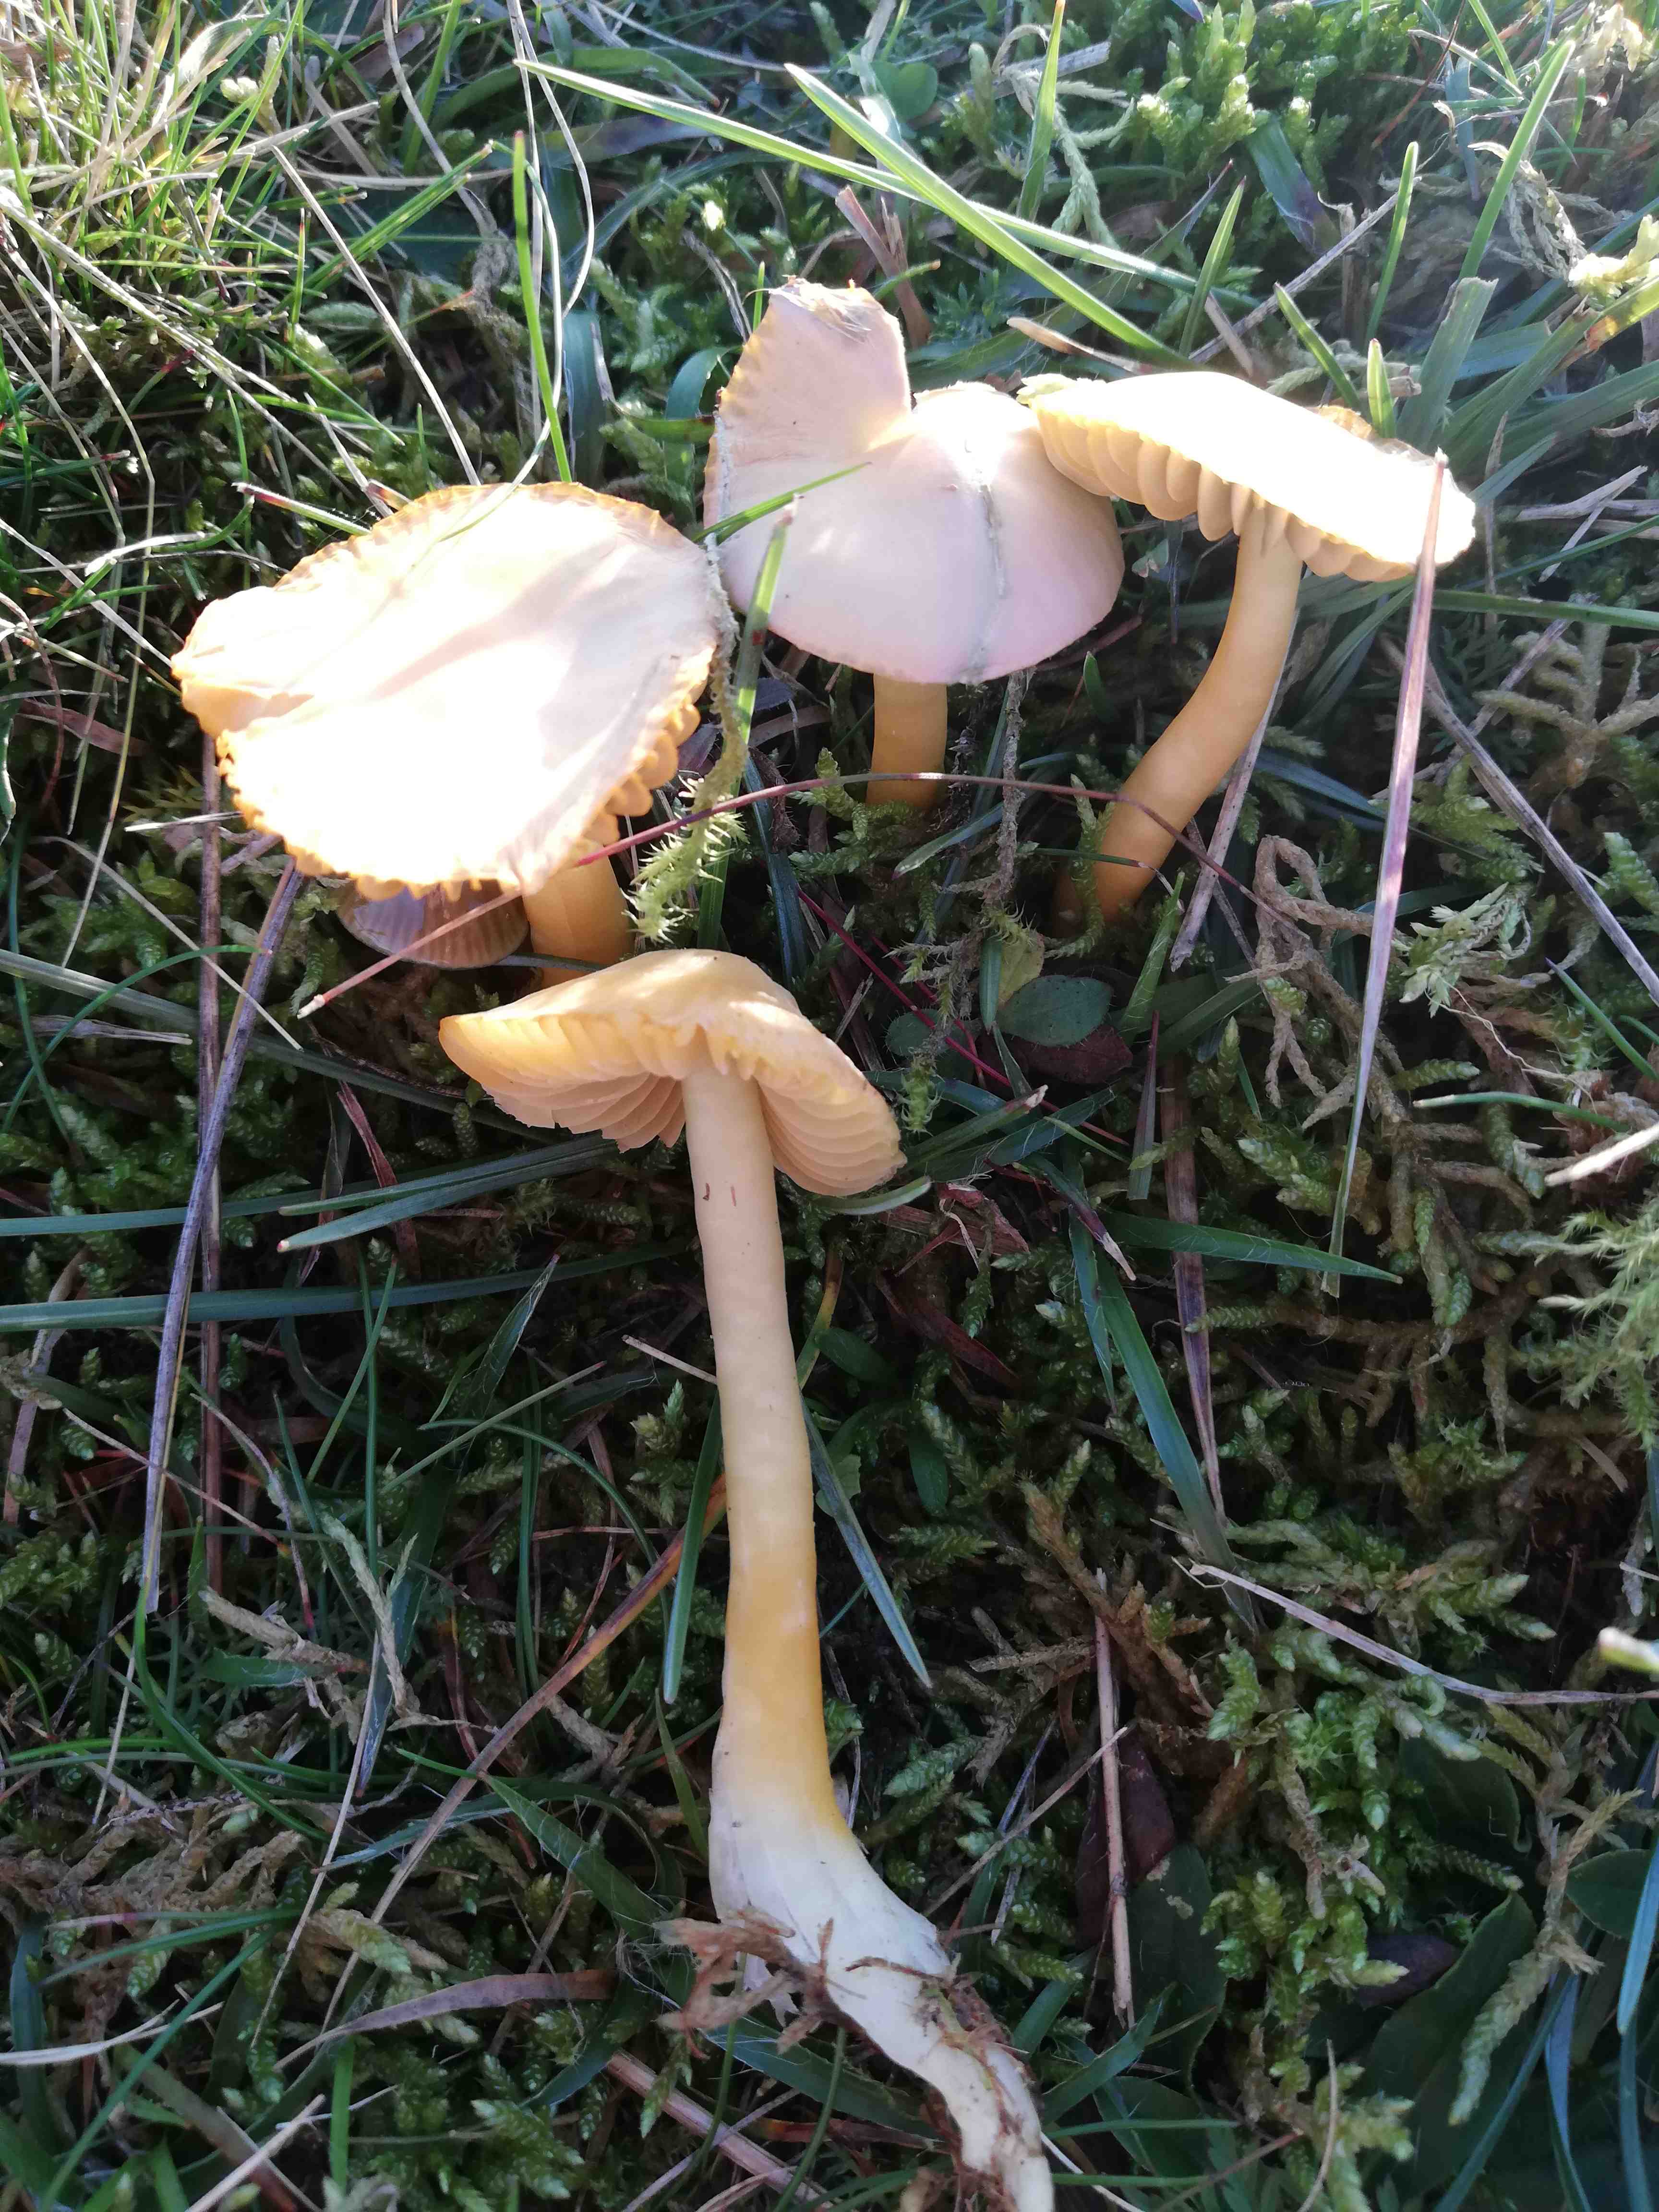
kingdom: Fungi
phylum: Basidiomycota
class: Agaricomycetes
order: Agaricales
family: Hygrophoraceae
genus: Gliophorus
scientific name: Gliophorus psittacinus
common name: papegøje-vokshat
